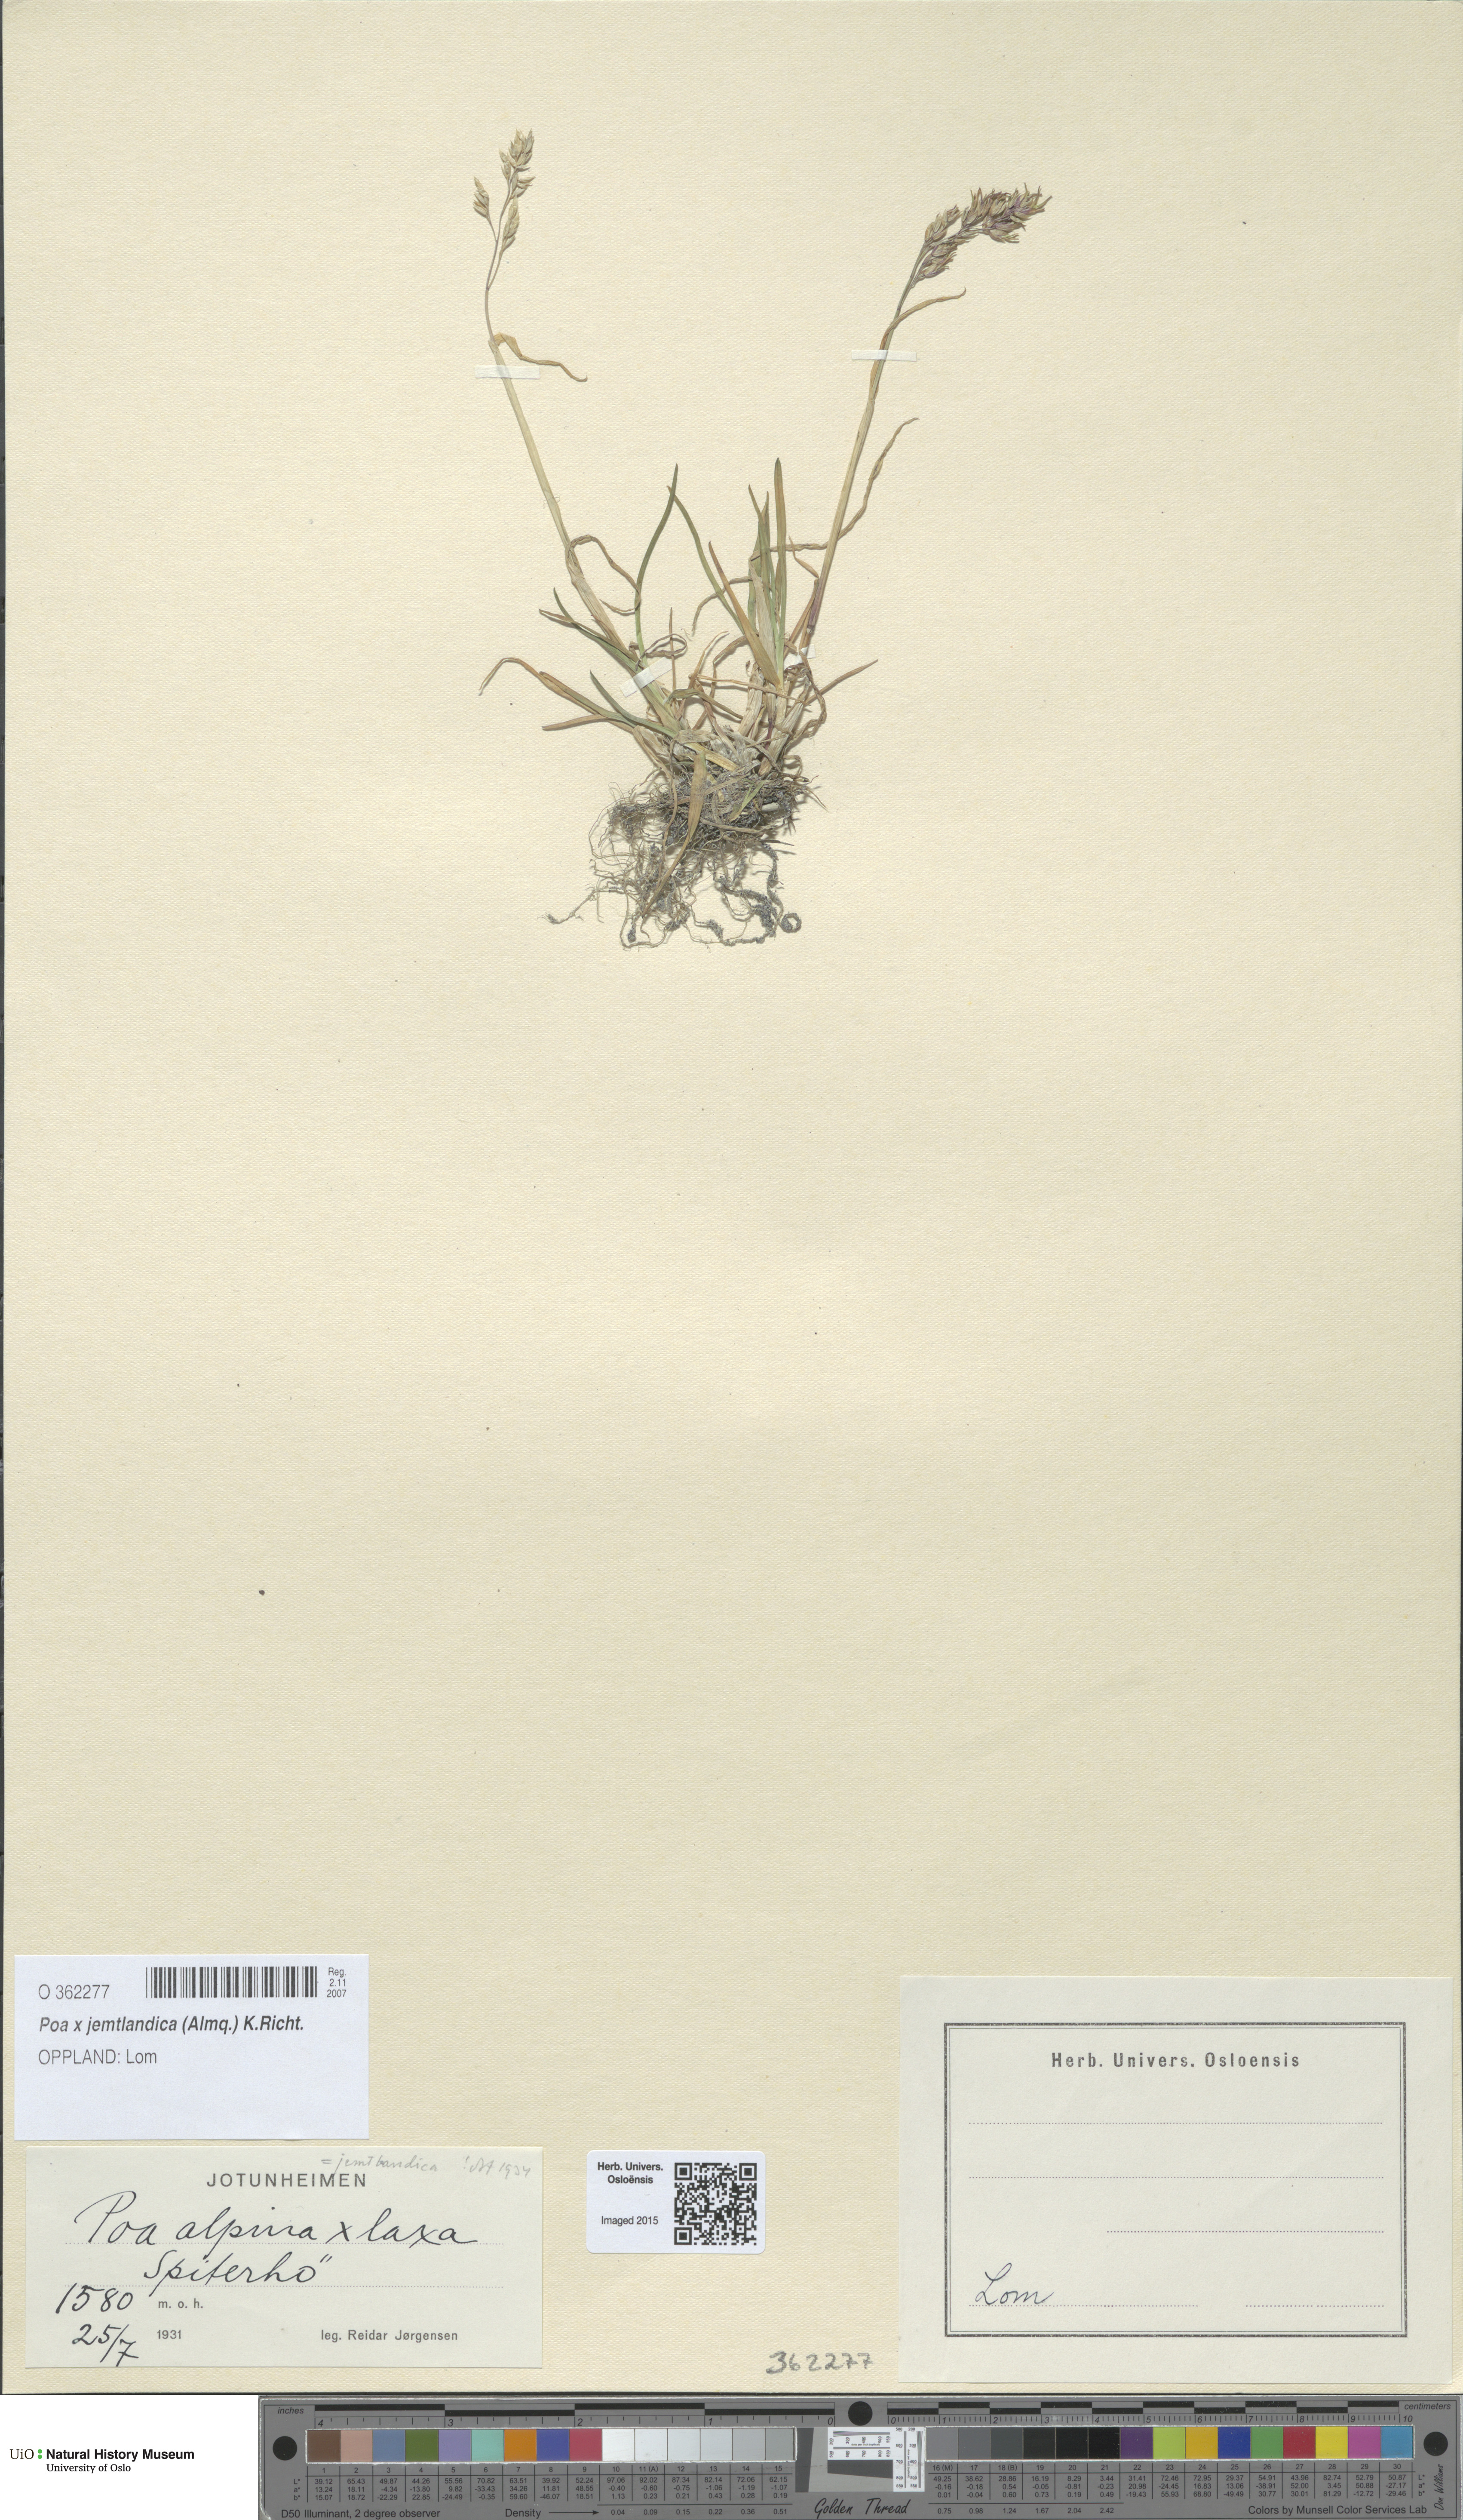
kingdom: Plantae
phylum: Tracheophyta
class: Liliopsida
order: Poales
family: Poaceae
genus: Poa
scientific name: Poa jemtlandica
